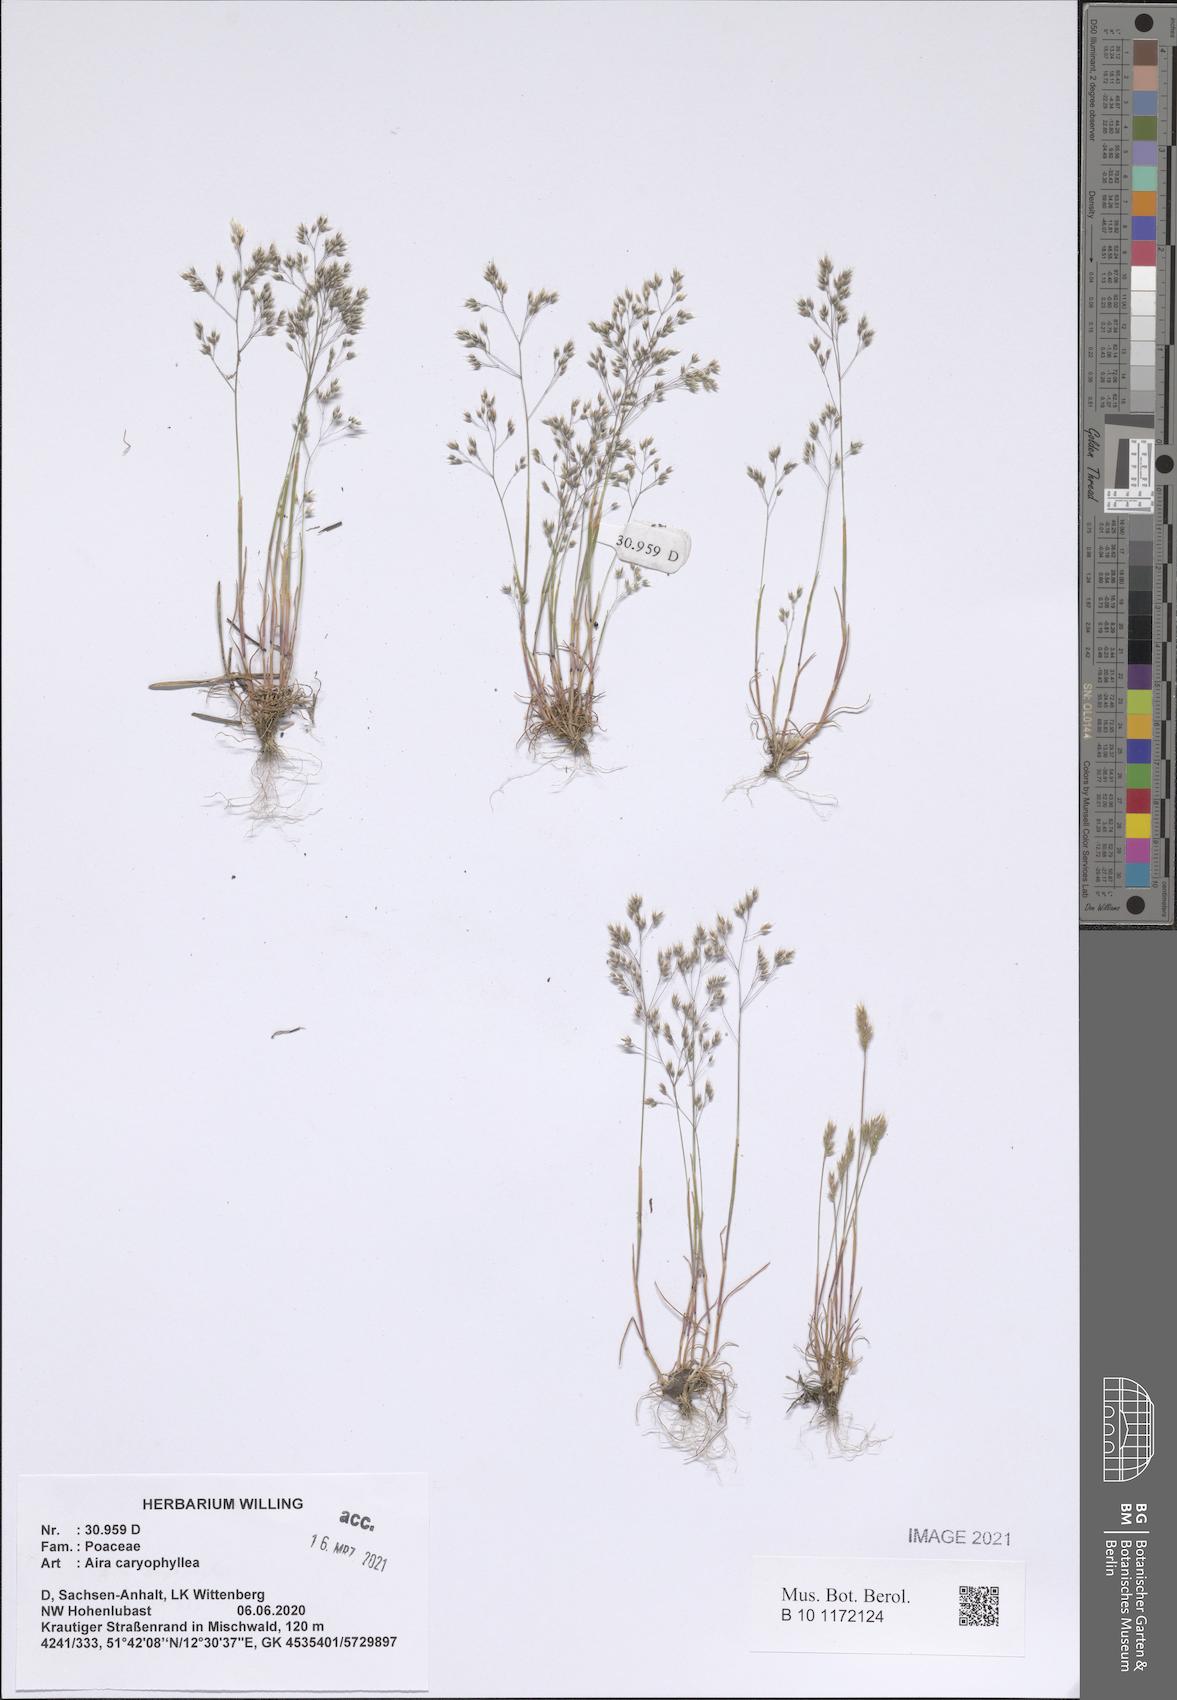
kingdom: Plantae
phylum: Tracheophyta
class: Liliopsida
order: Poales
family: Poaceae
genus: Aira
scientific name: Aira caryophyllea
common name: Silver hairgrass
